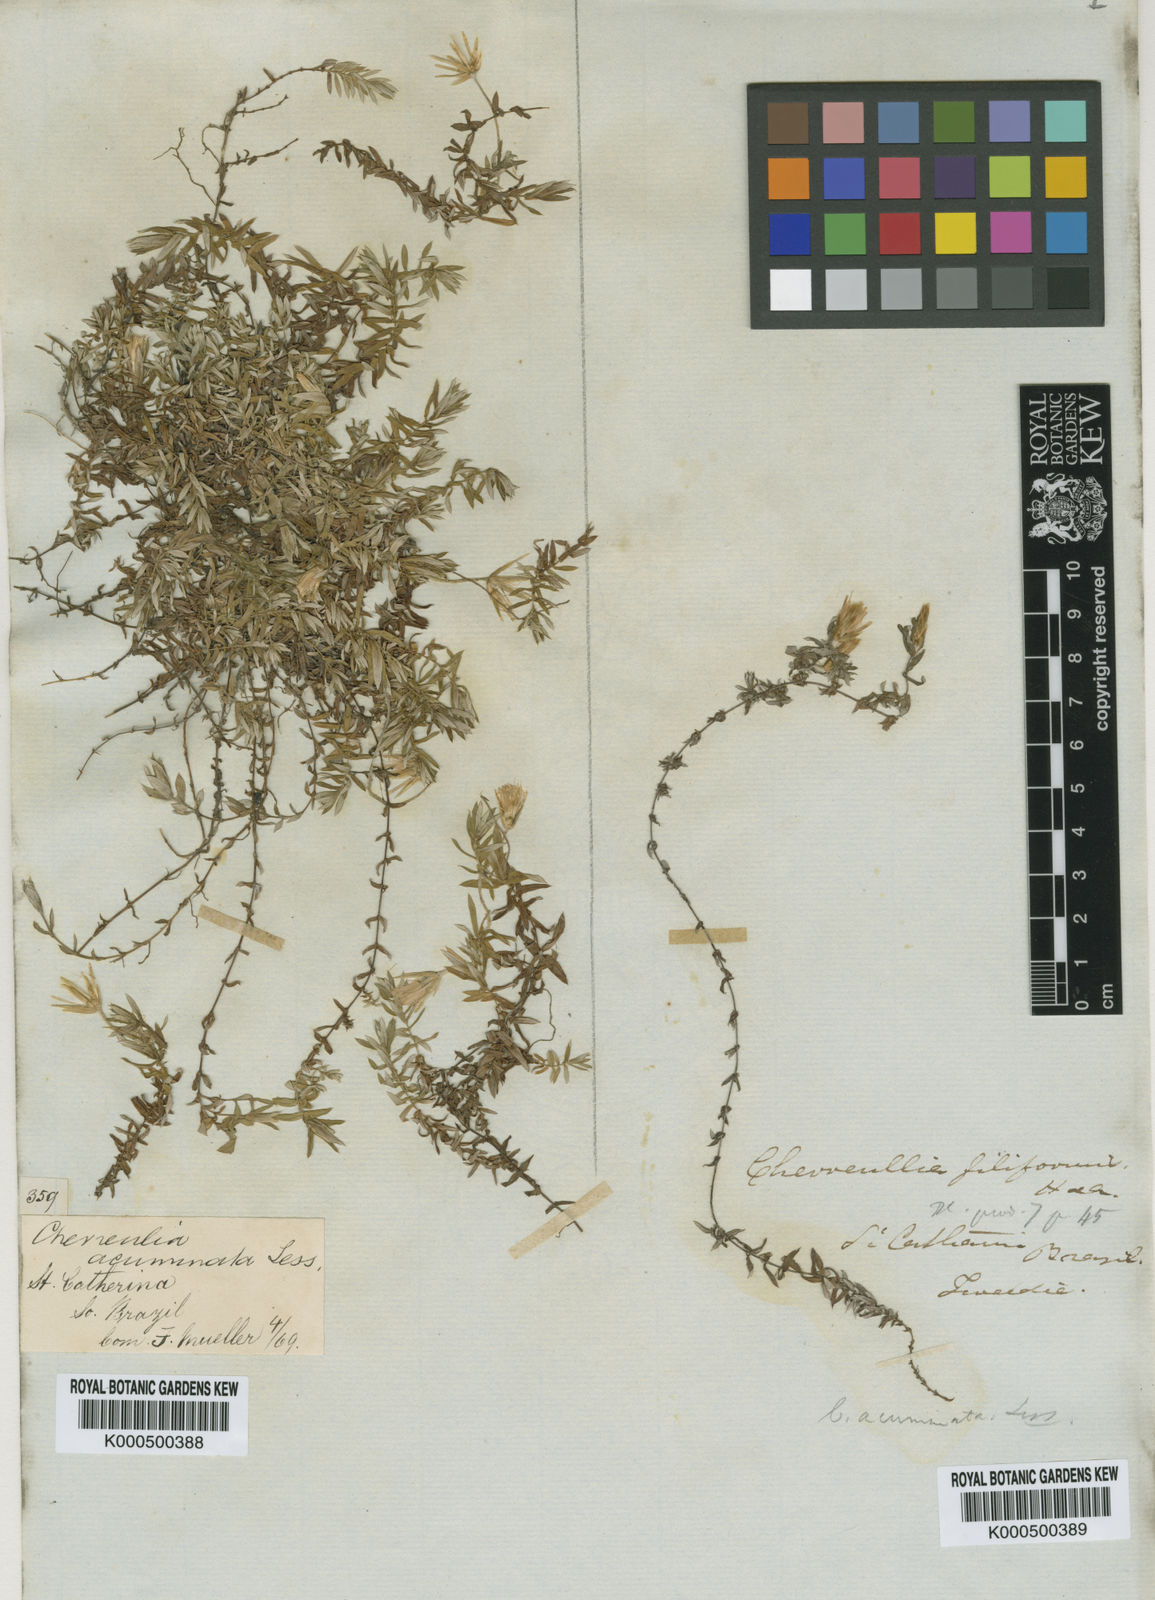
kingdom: Plantae
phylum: Tracheophyta
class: Magnoliopsida
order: Asterales
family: Asteraceae
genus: Chevreulia
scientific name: Chevreulia acuminata
